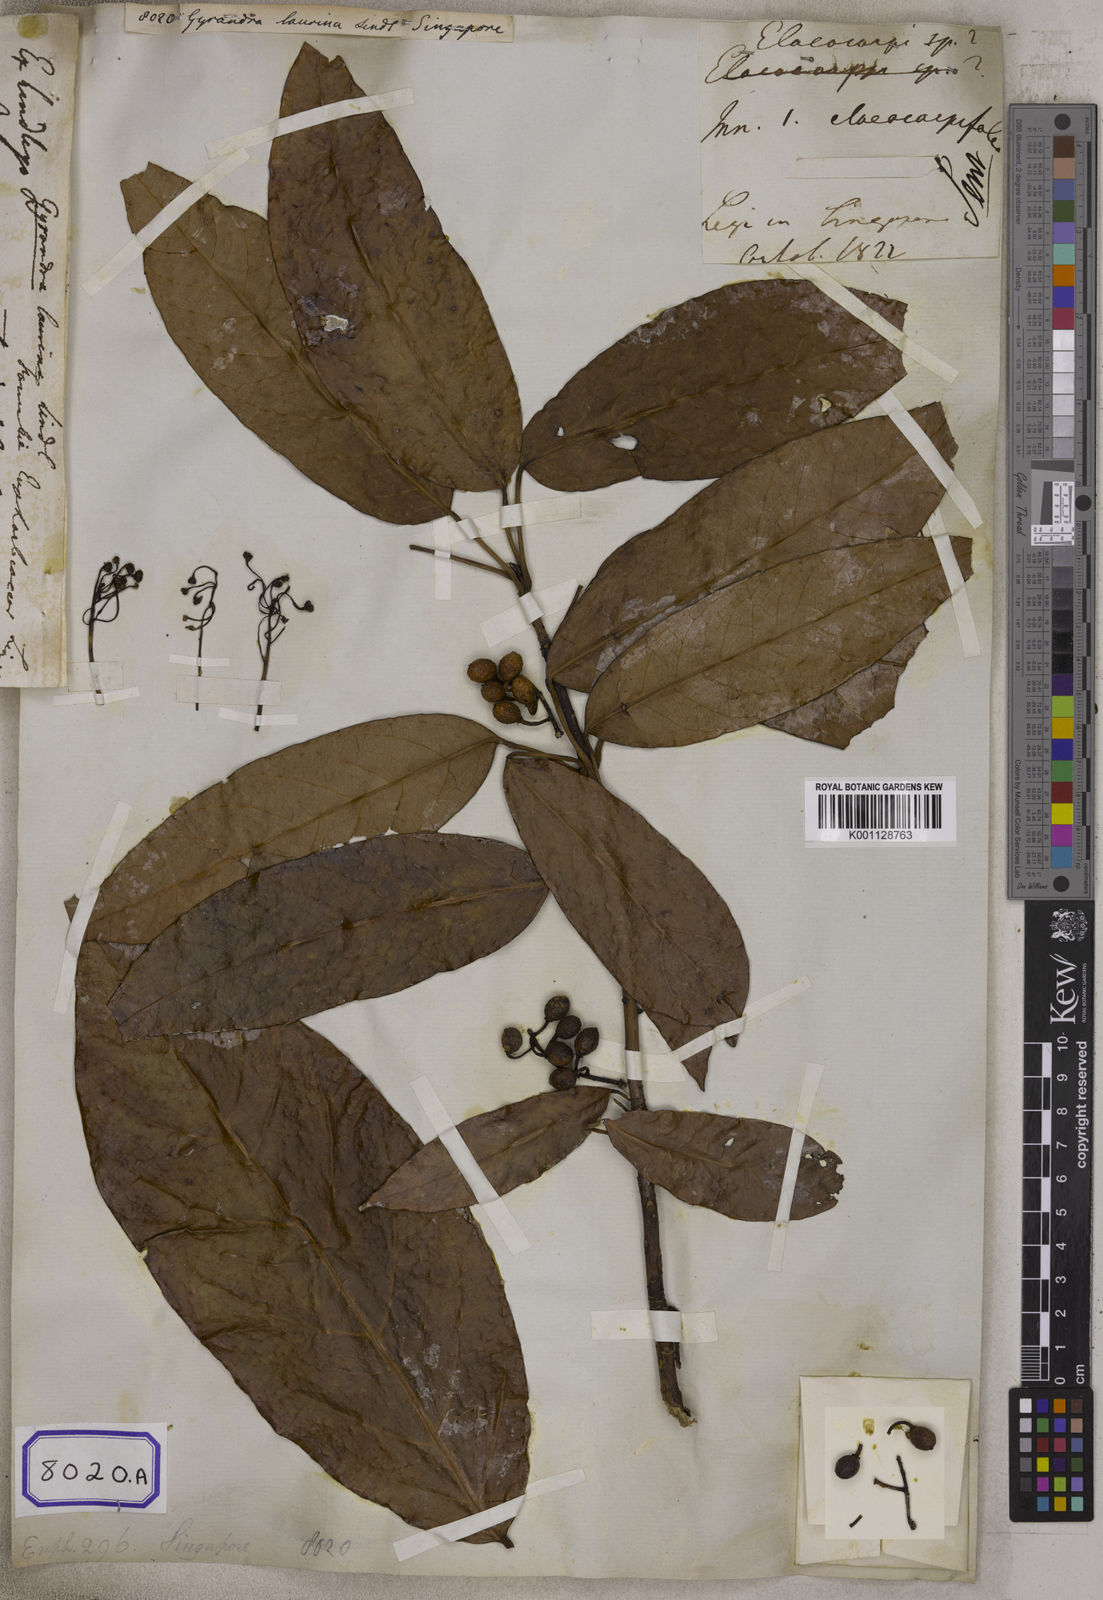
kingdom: Plantae
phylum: Tracheophyta
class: Magnoliopsida
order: Malpighiales
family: Euphorbiaceae
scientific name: Euphorbiaceae
